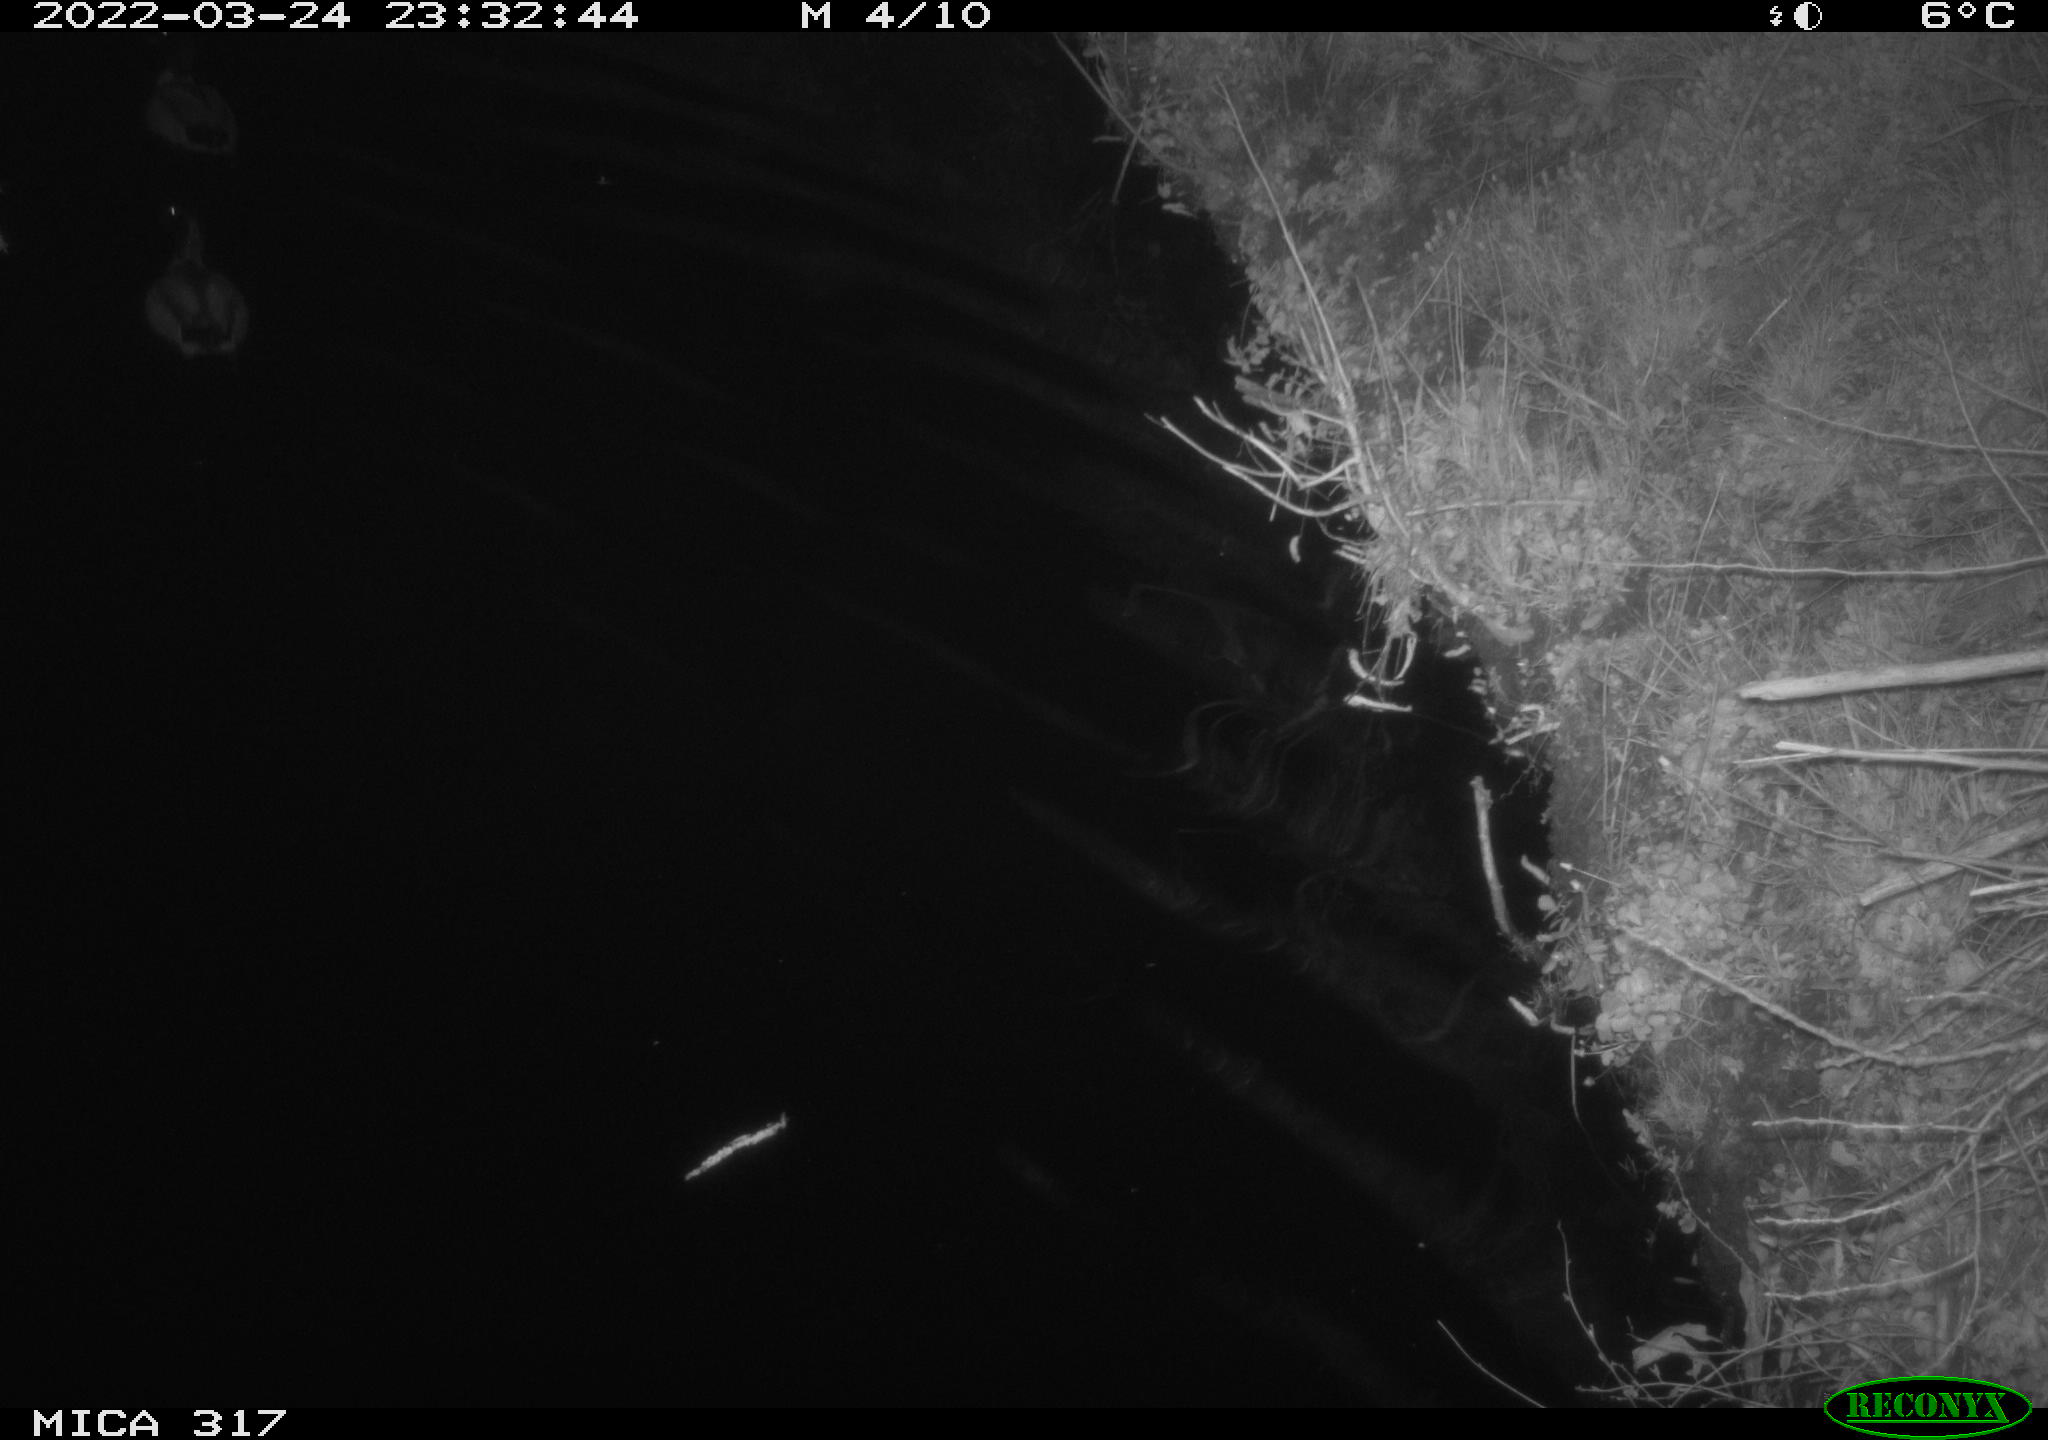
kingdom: Animalia
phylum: Chordata
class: Aves
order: Anseriformes
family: Anatidae
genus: Anas
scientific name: Anas platyrhynchos
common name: Mallard
